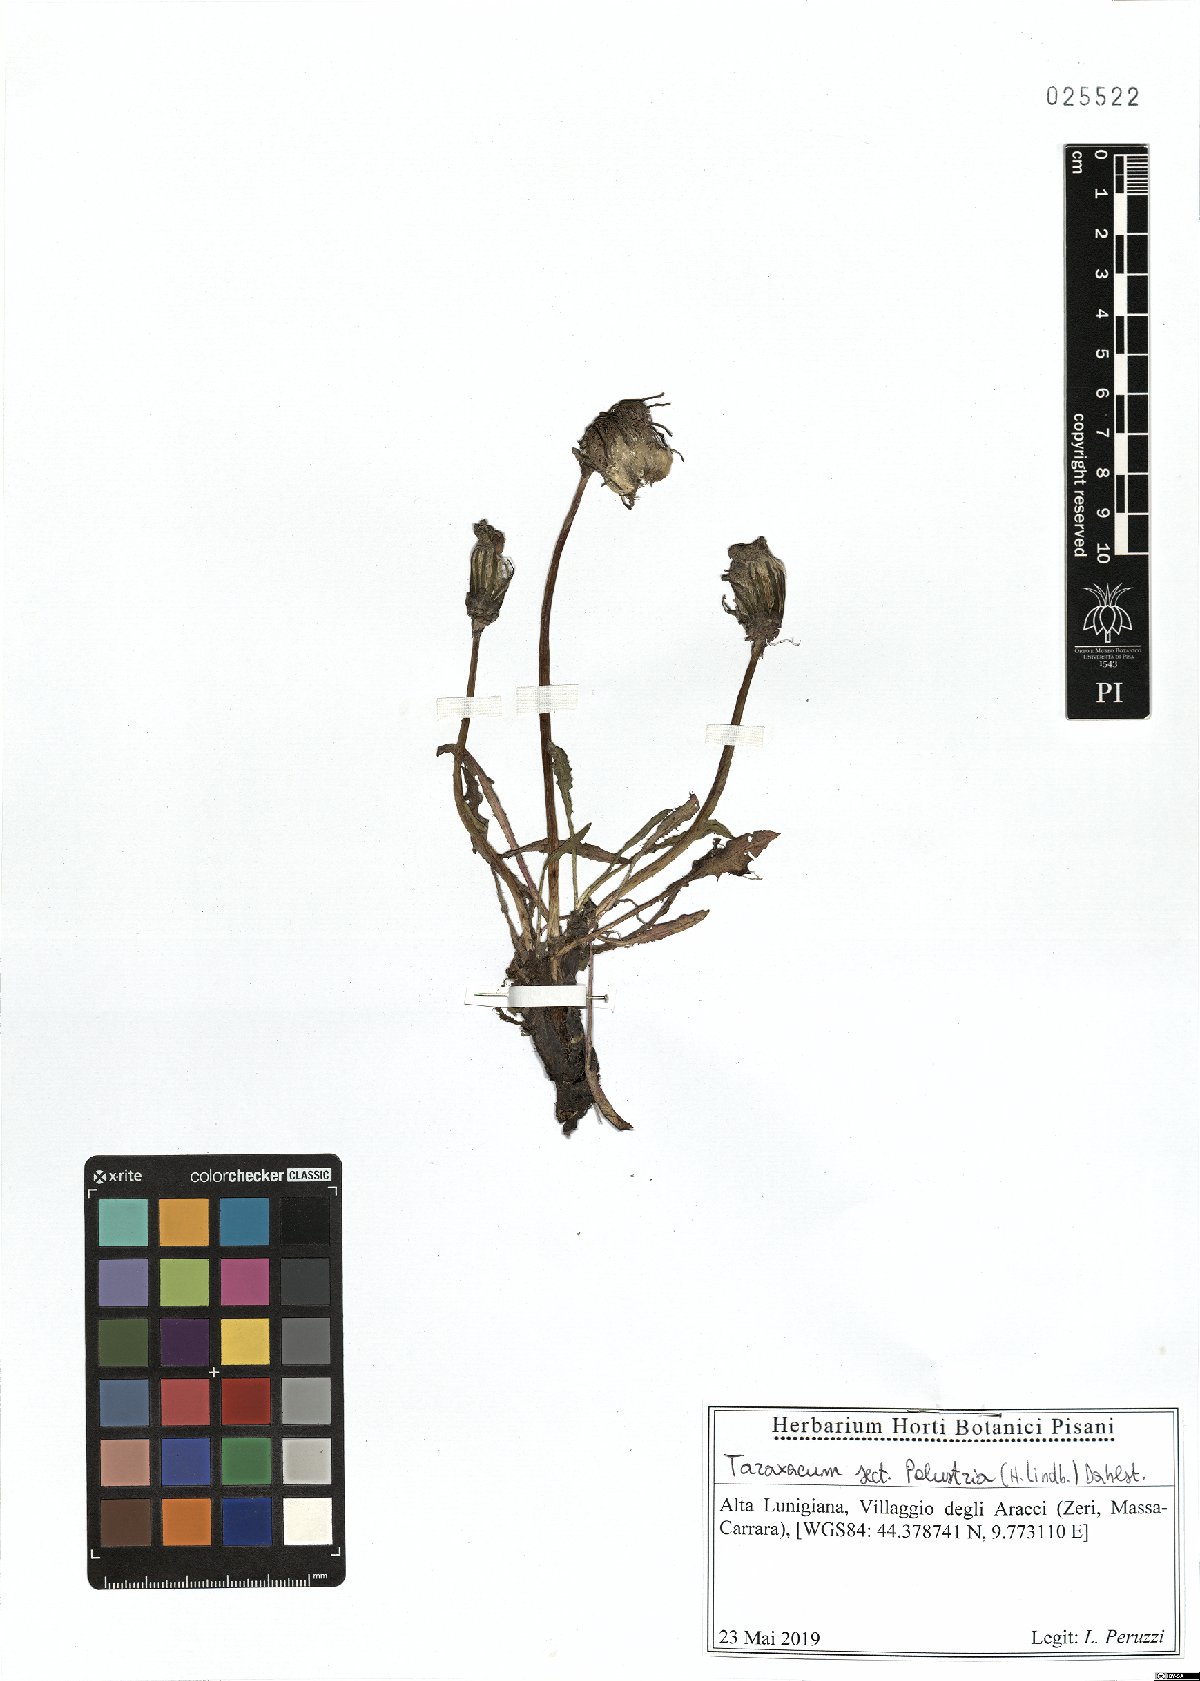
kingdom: Plantae
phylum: Tracheophyta
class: Magnoliopsida
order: Asterales
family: Asteraceae
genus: Taraxacum
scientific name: Taraxacum palustria
